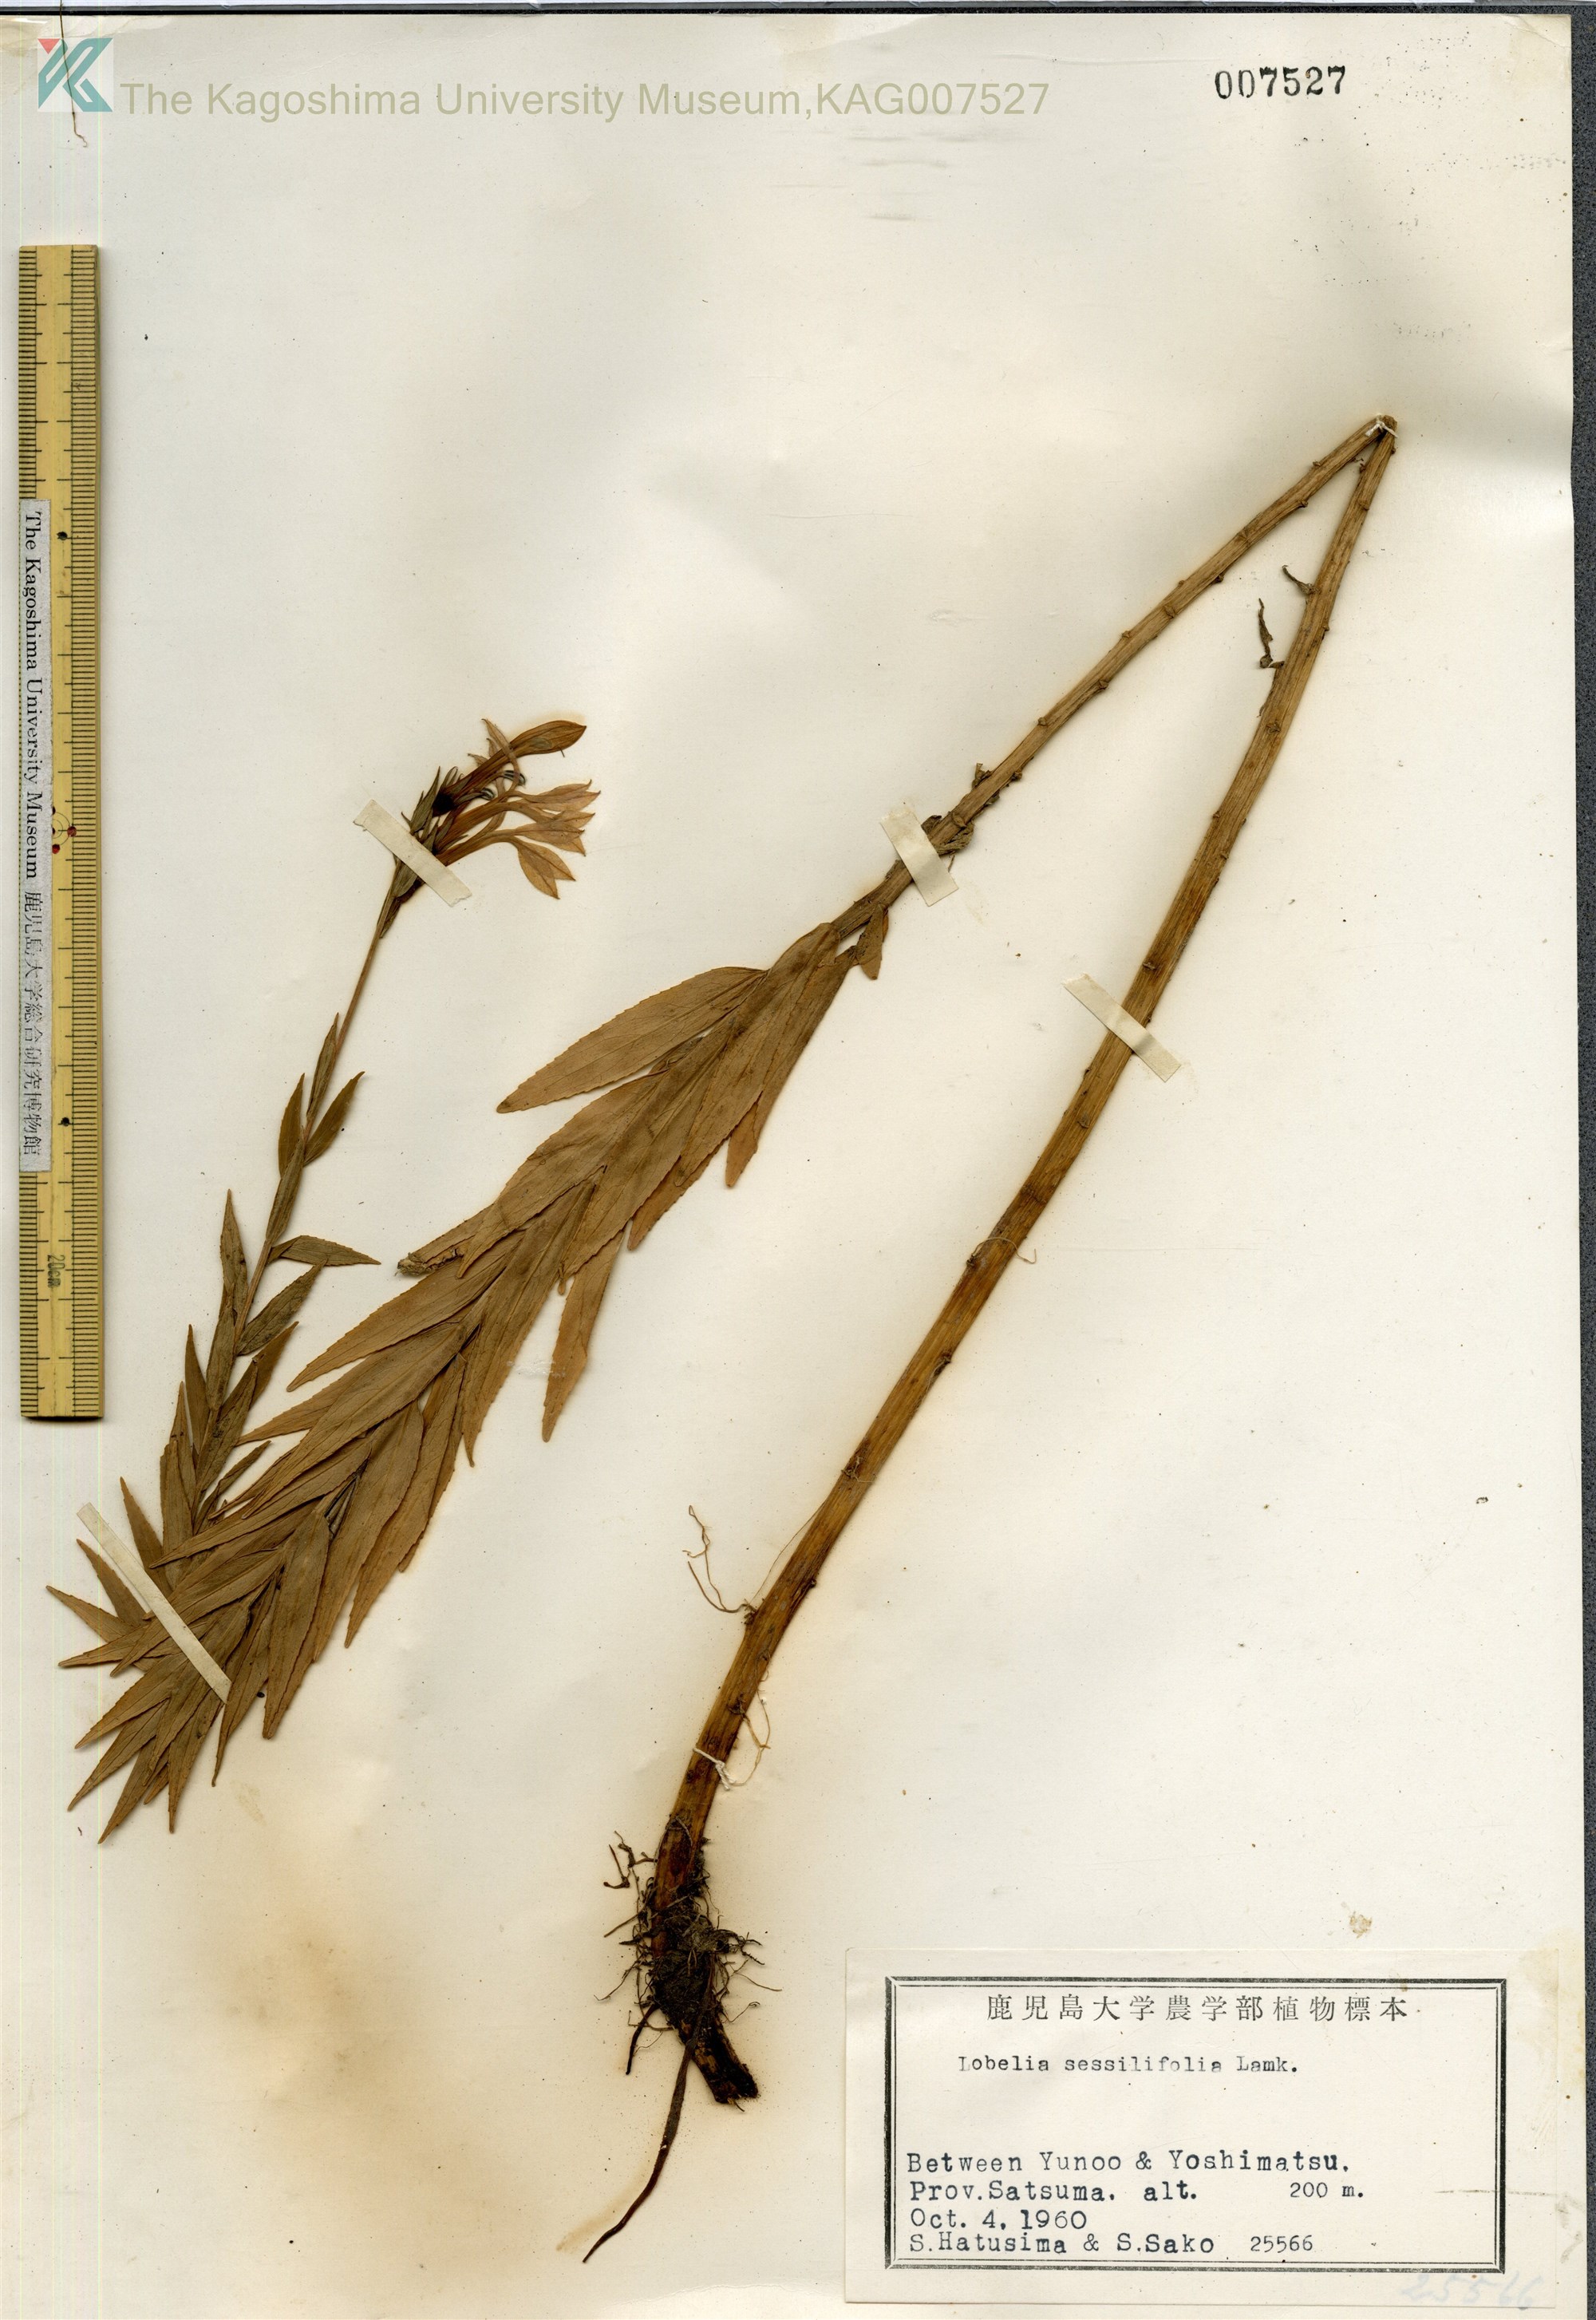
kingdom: Plantae
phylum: Tracheophyta
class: Magnoliopsida
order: Asterales
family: Campanulaceae
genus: Lobelia
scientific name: Lobelia sessilifolia
